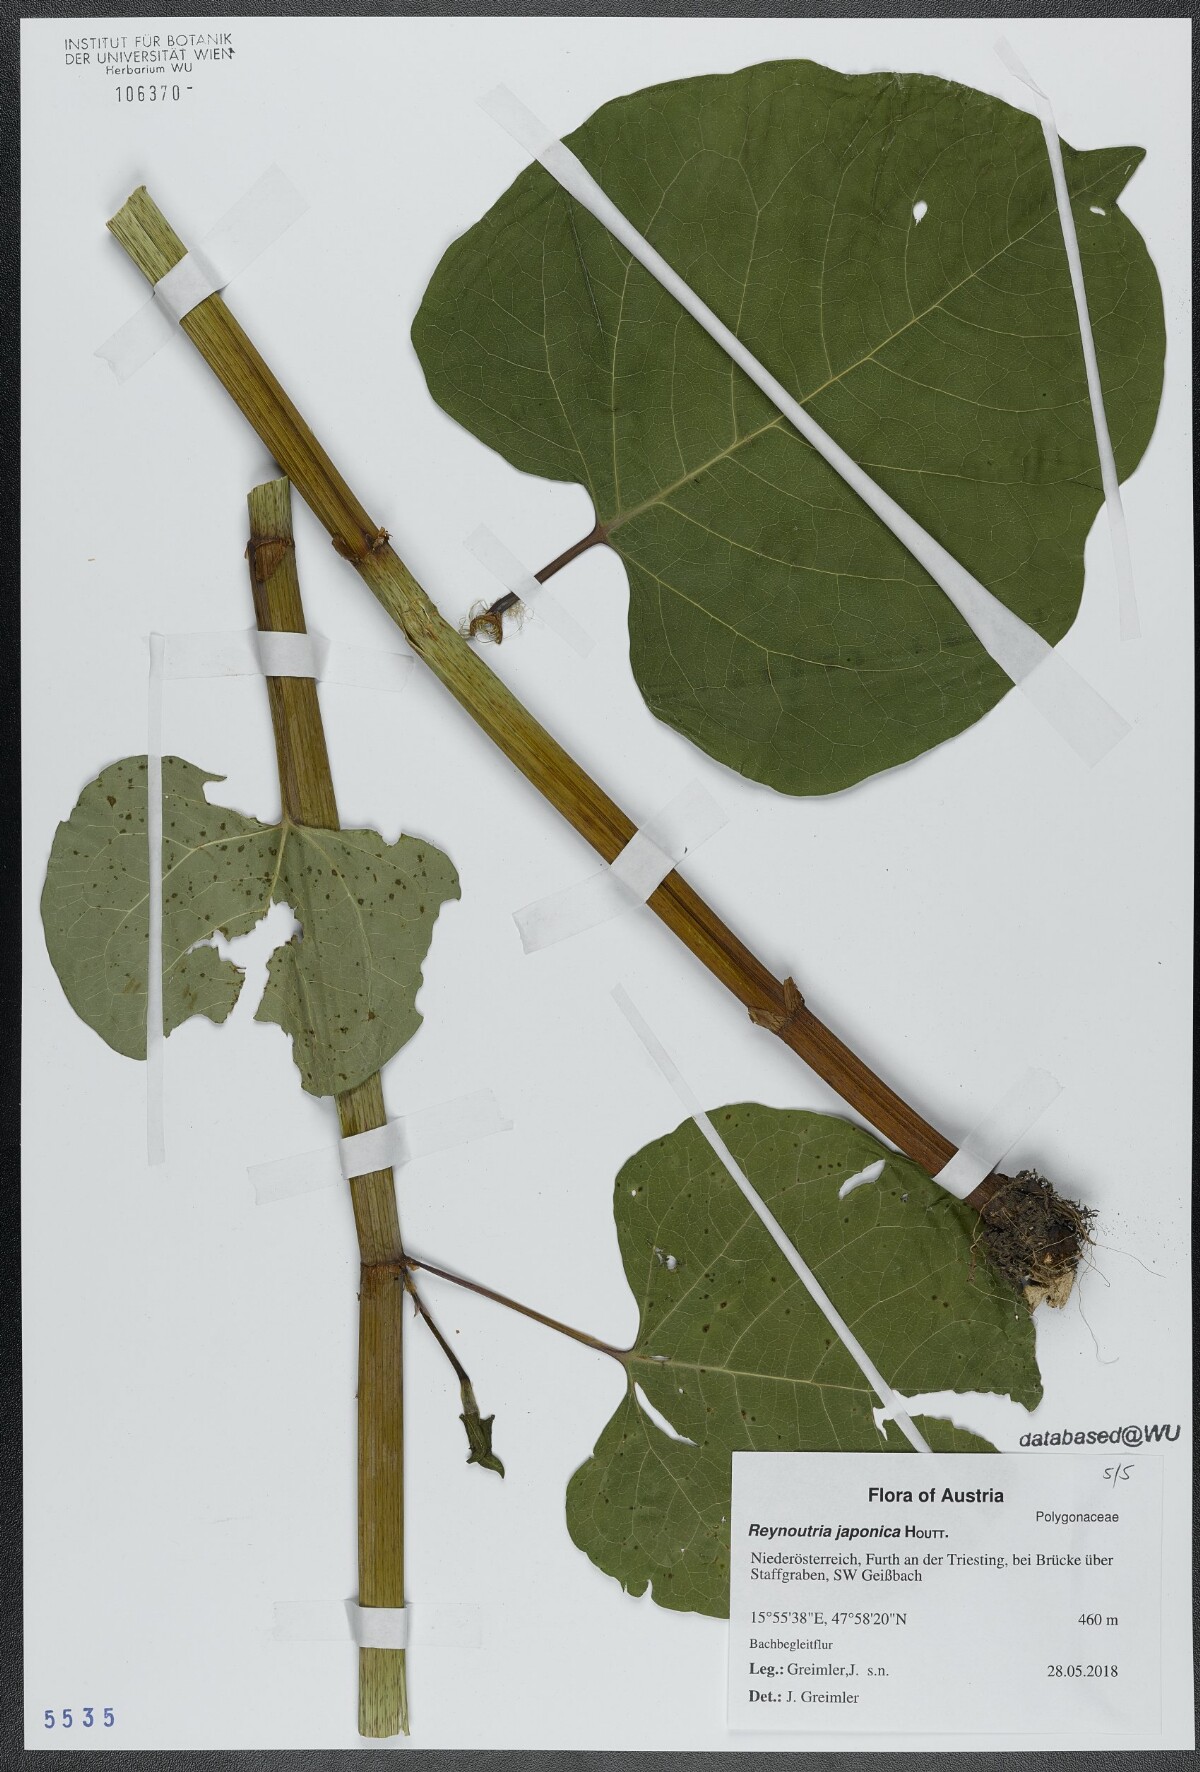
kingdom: Plantae
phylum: Tracheophyta
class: Magnoliopsida
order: Caryophyllales
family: Polygonaceae
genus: Reynoutria
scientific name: Reynoutria bohemica
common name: Bohemian knotweed
